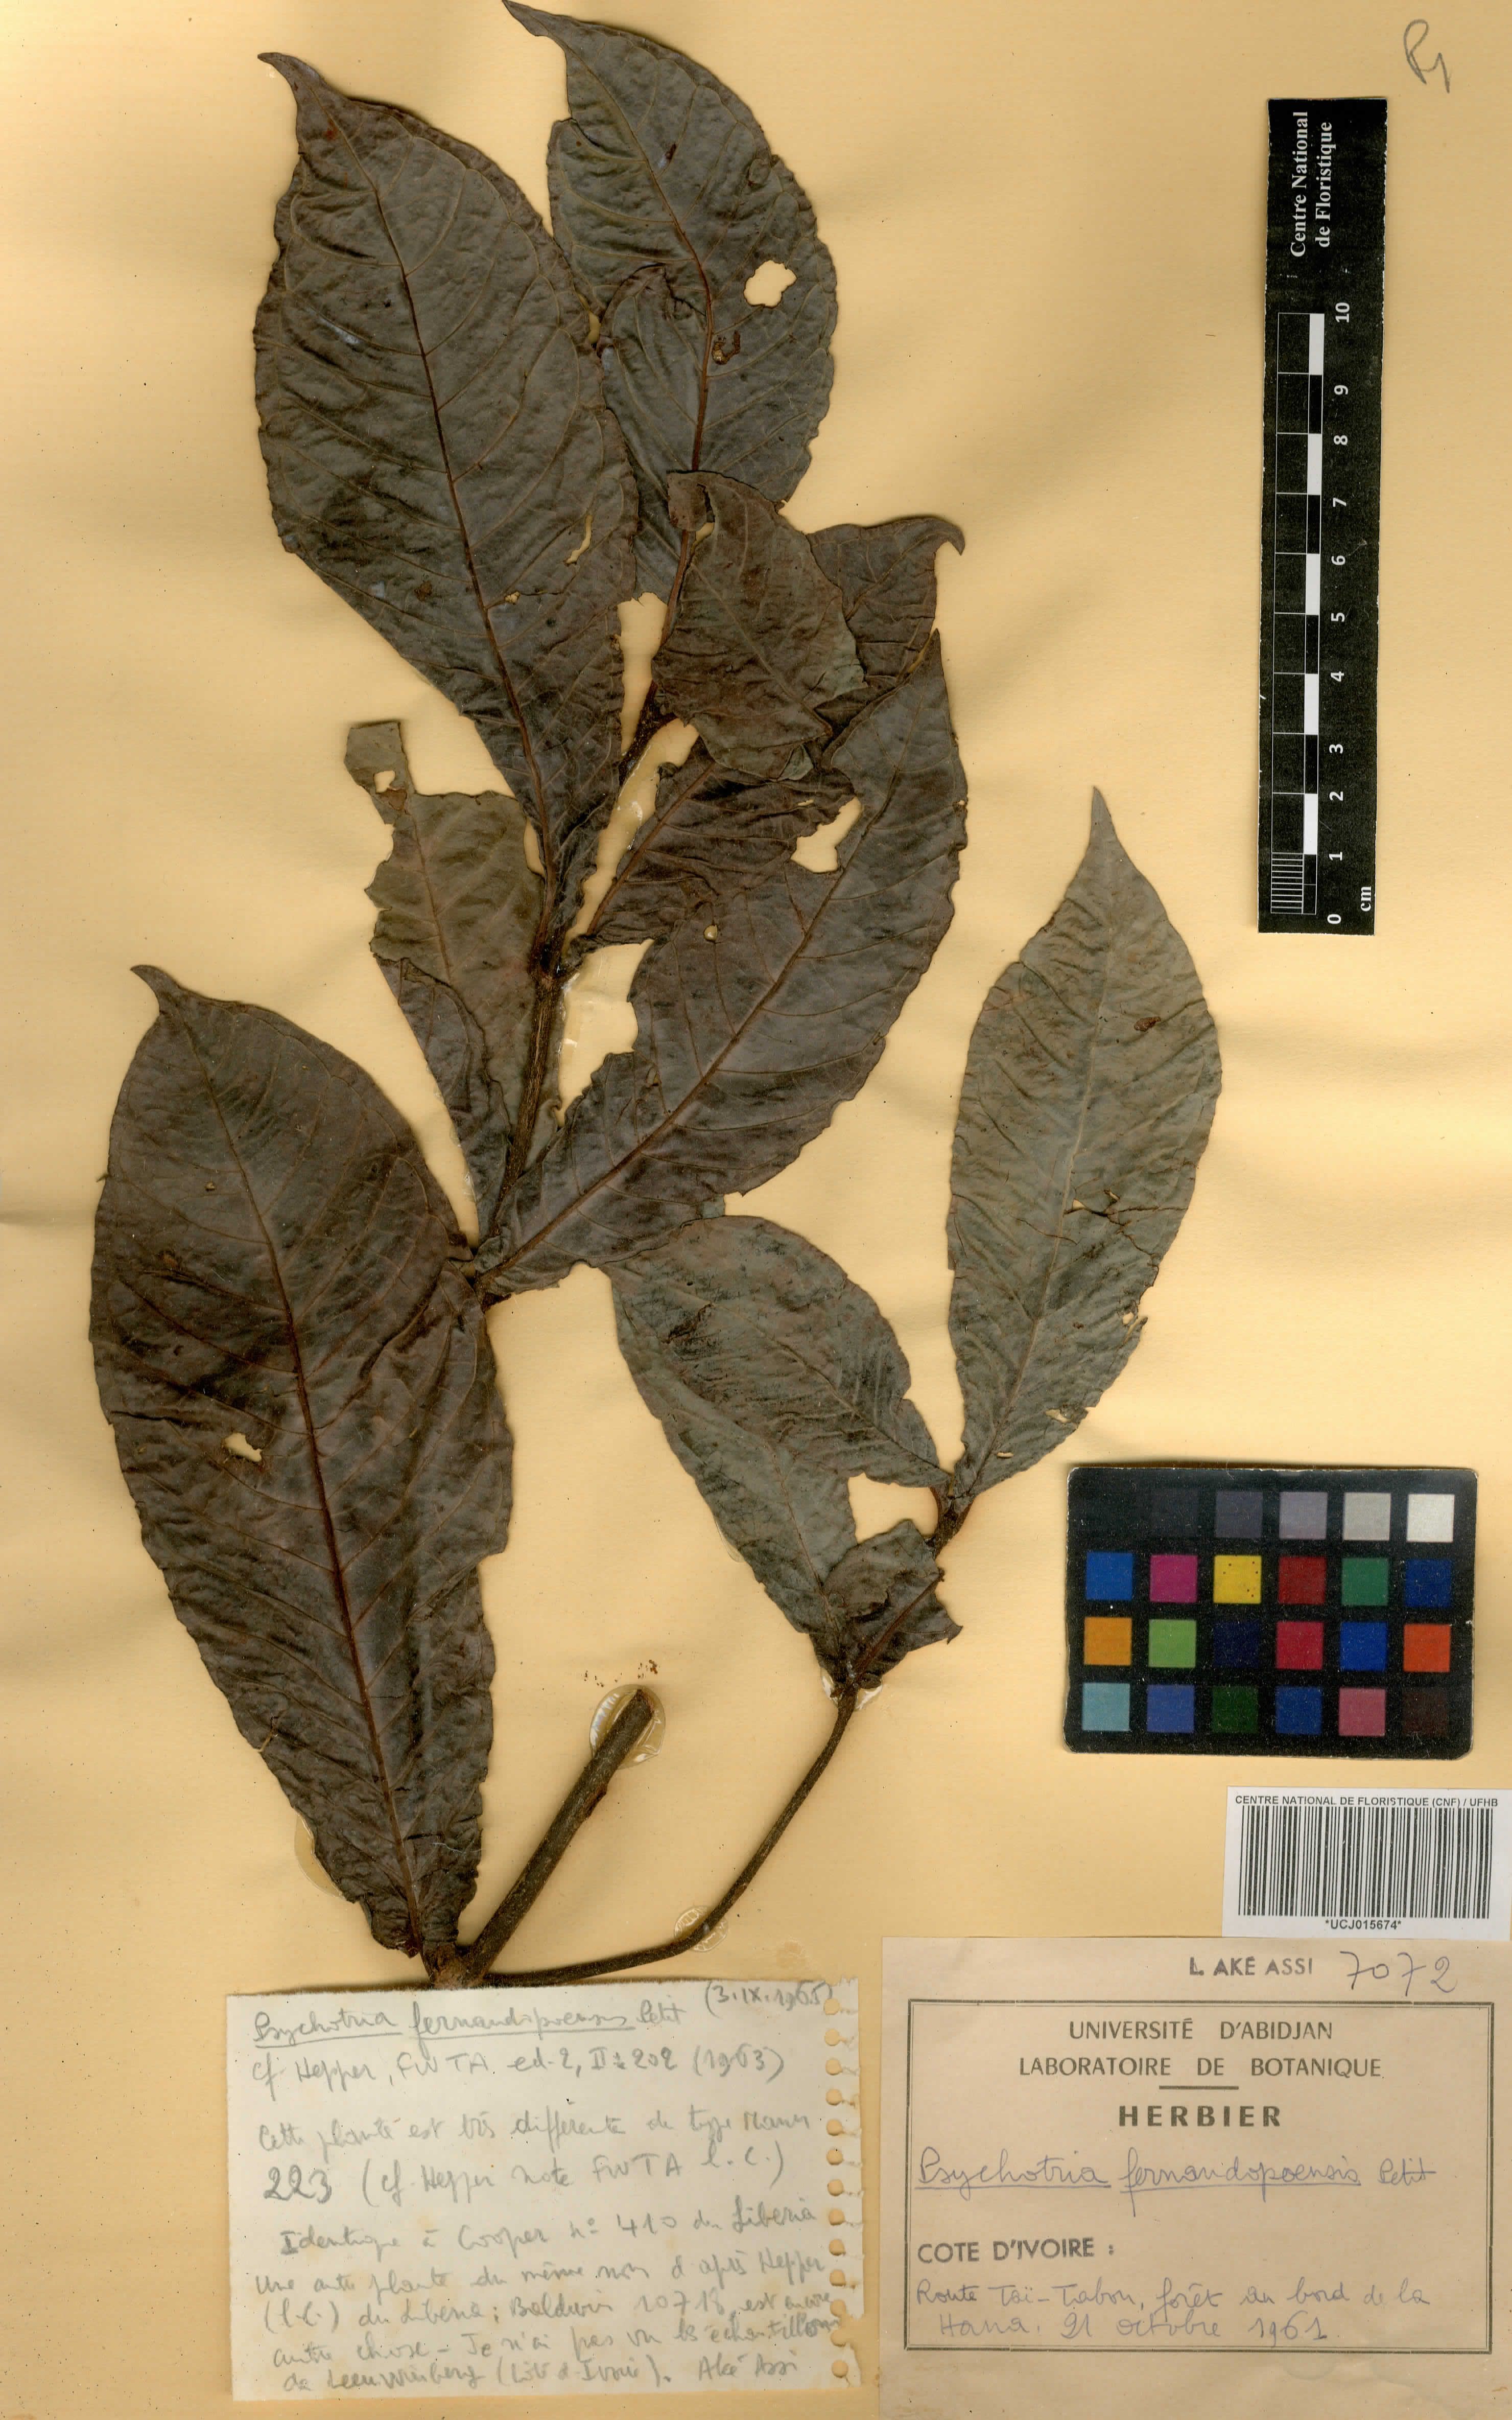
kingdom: Plantae
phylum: Tracheophyta
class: Magnoliopsida
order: Gentianales
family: Rubiaceae
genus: Psychotria
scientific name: Psychotria fernandopoensis
